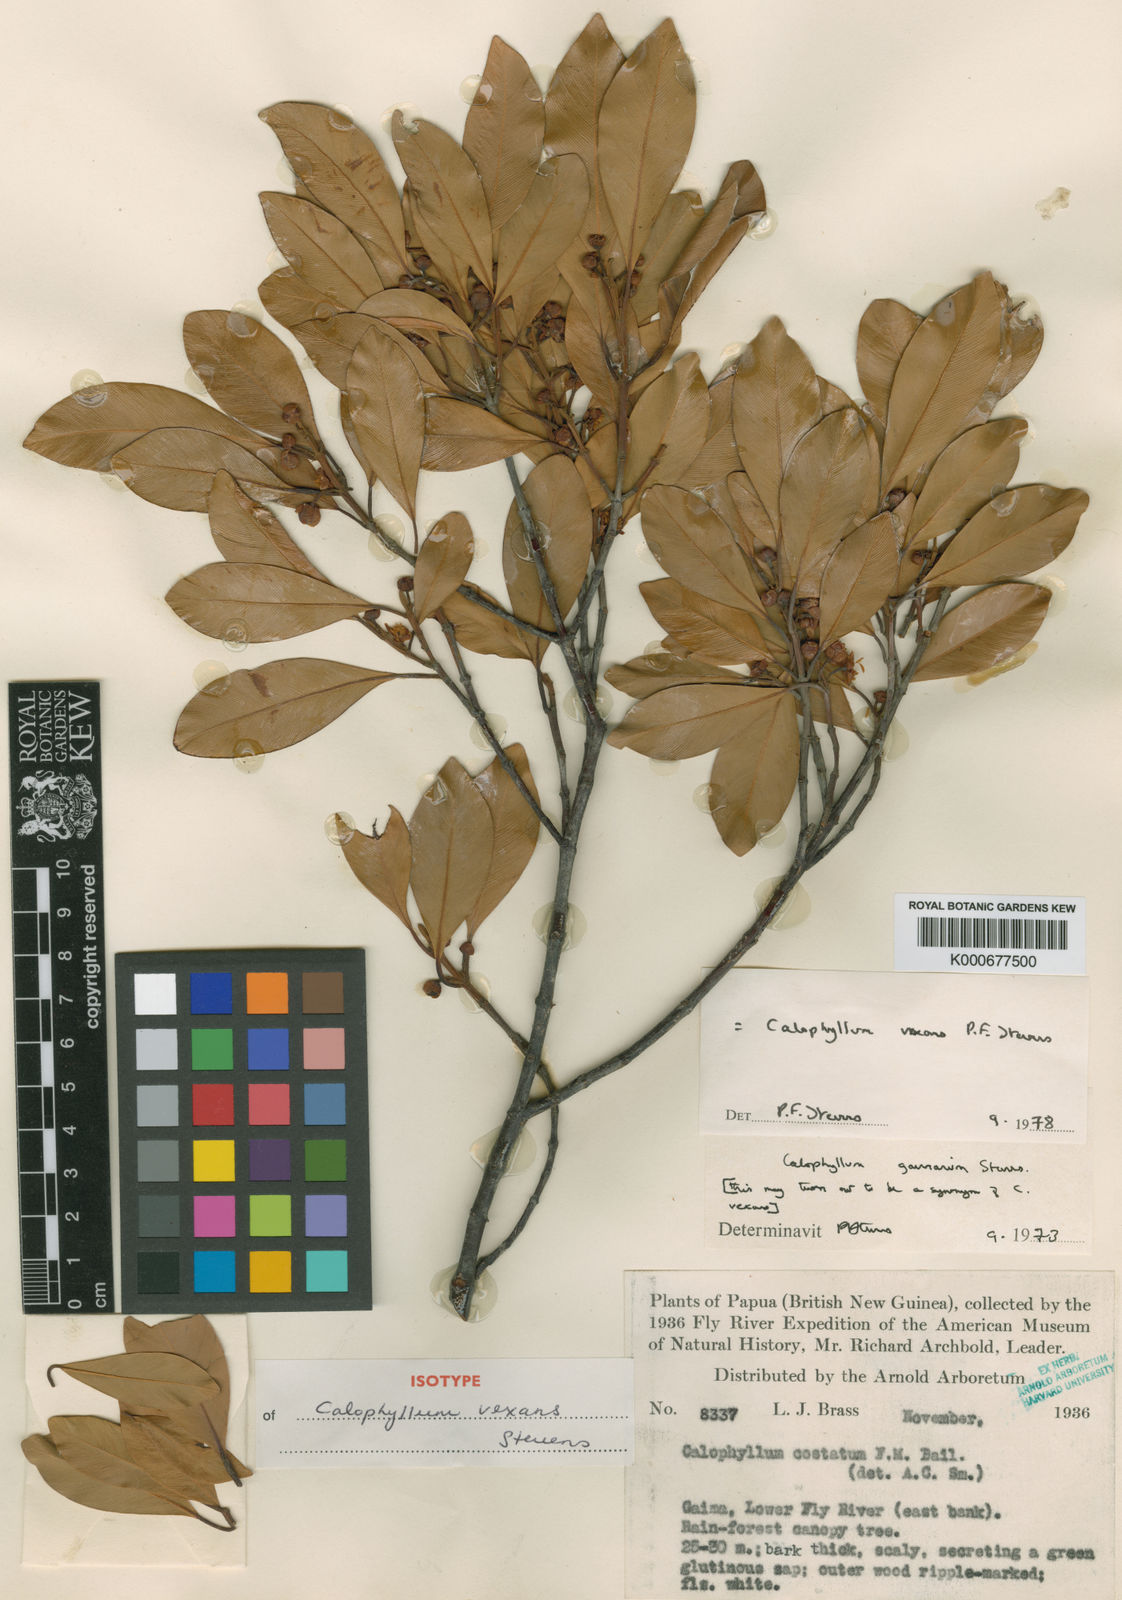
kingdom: Plantae
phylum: Tracheophyta
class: Magnoliopsida
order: Malpighiales
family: Calophyllaceae
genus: Calophyllum
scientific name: Calophyllum vexans
